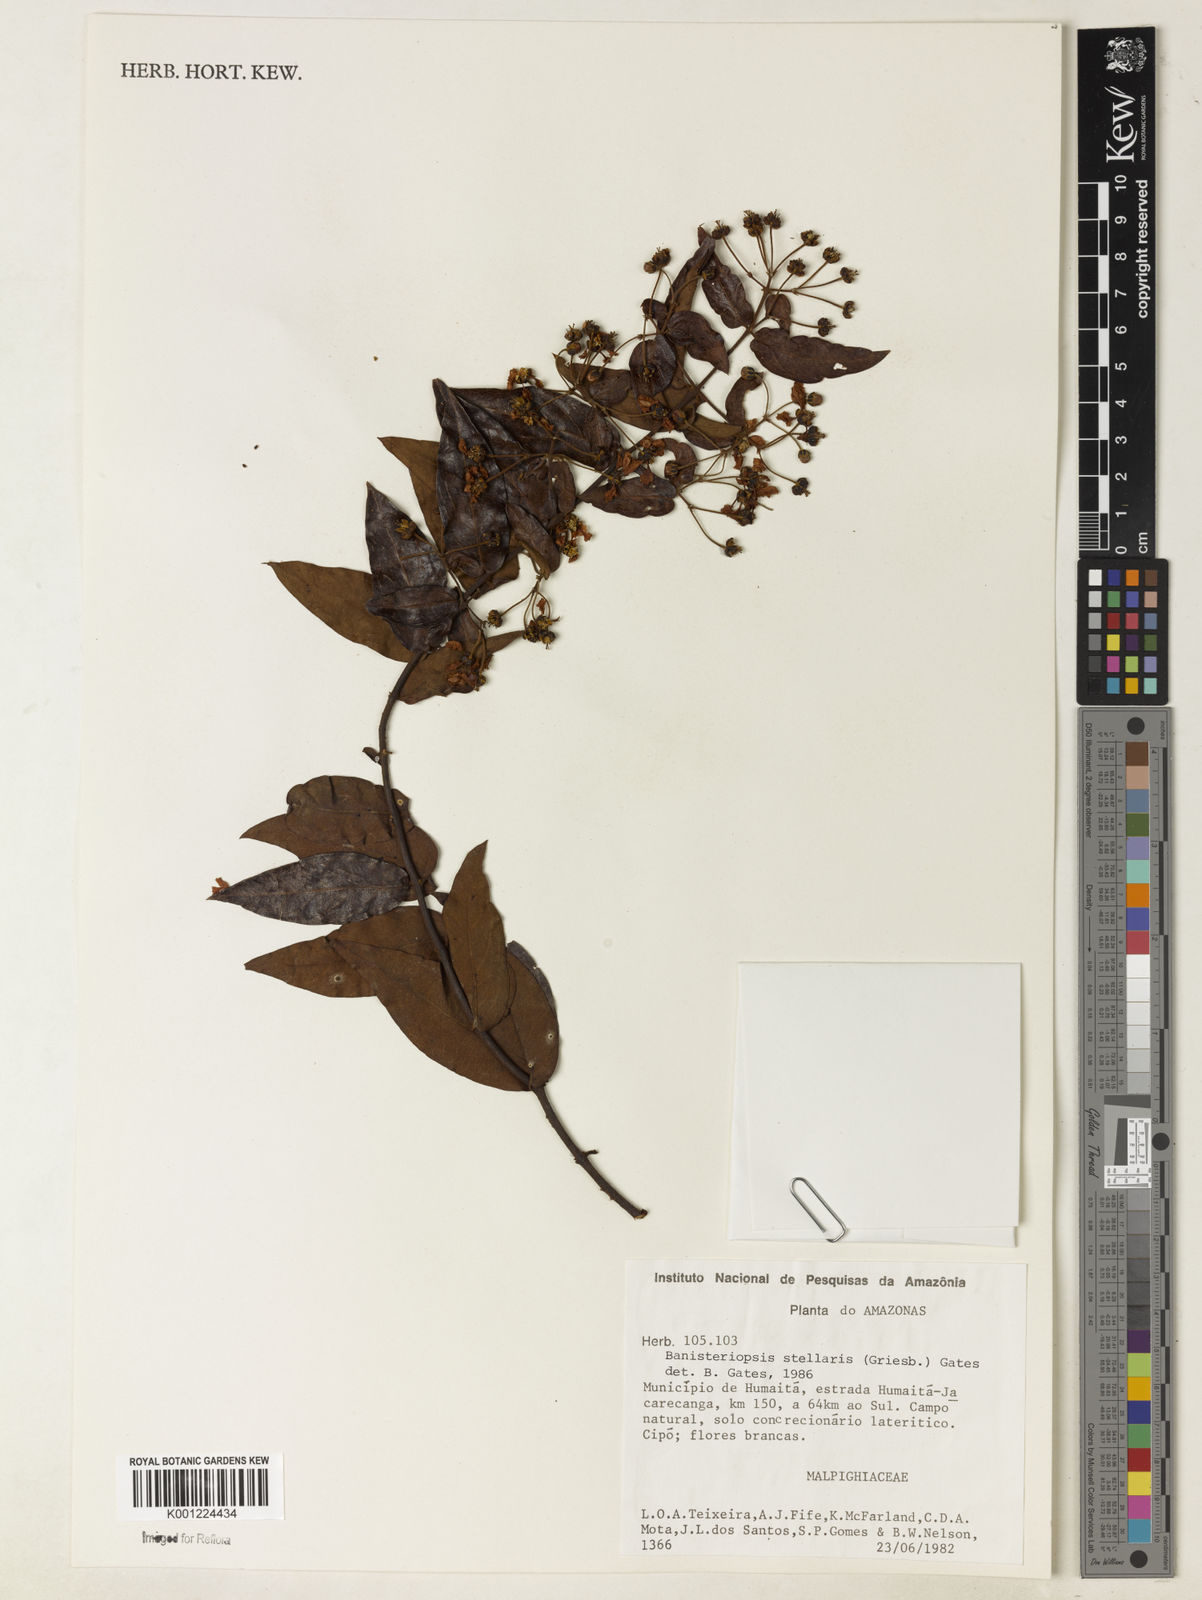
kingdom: Plantae
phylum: Tracheophyta
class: Magnoliopsida
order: Malpighiales
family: Malpighiaceae
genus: Banisteriopsis
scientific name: Banisteriopsis stellaris
